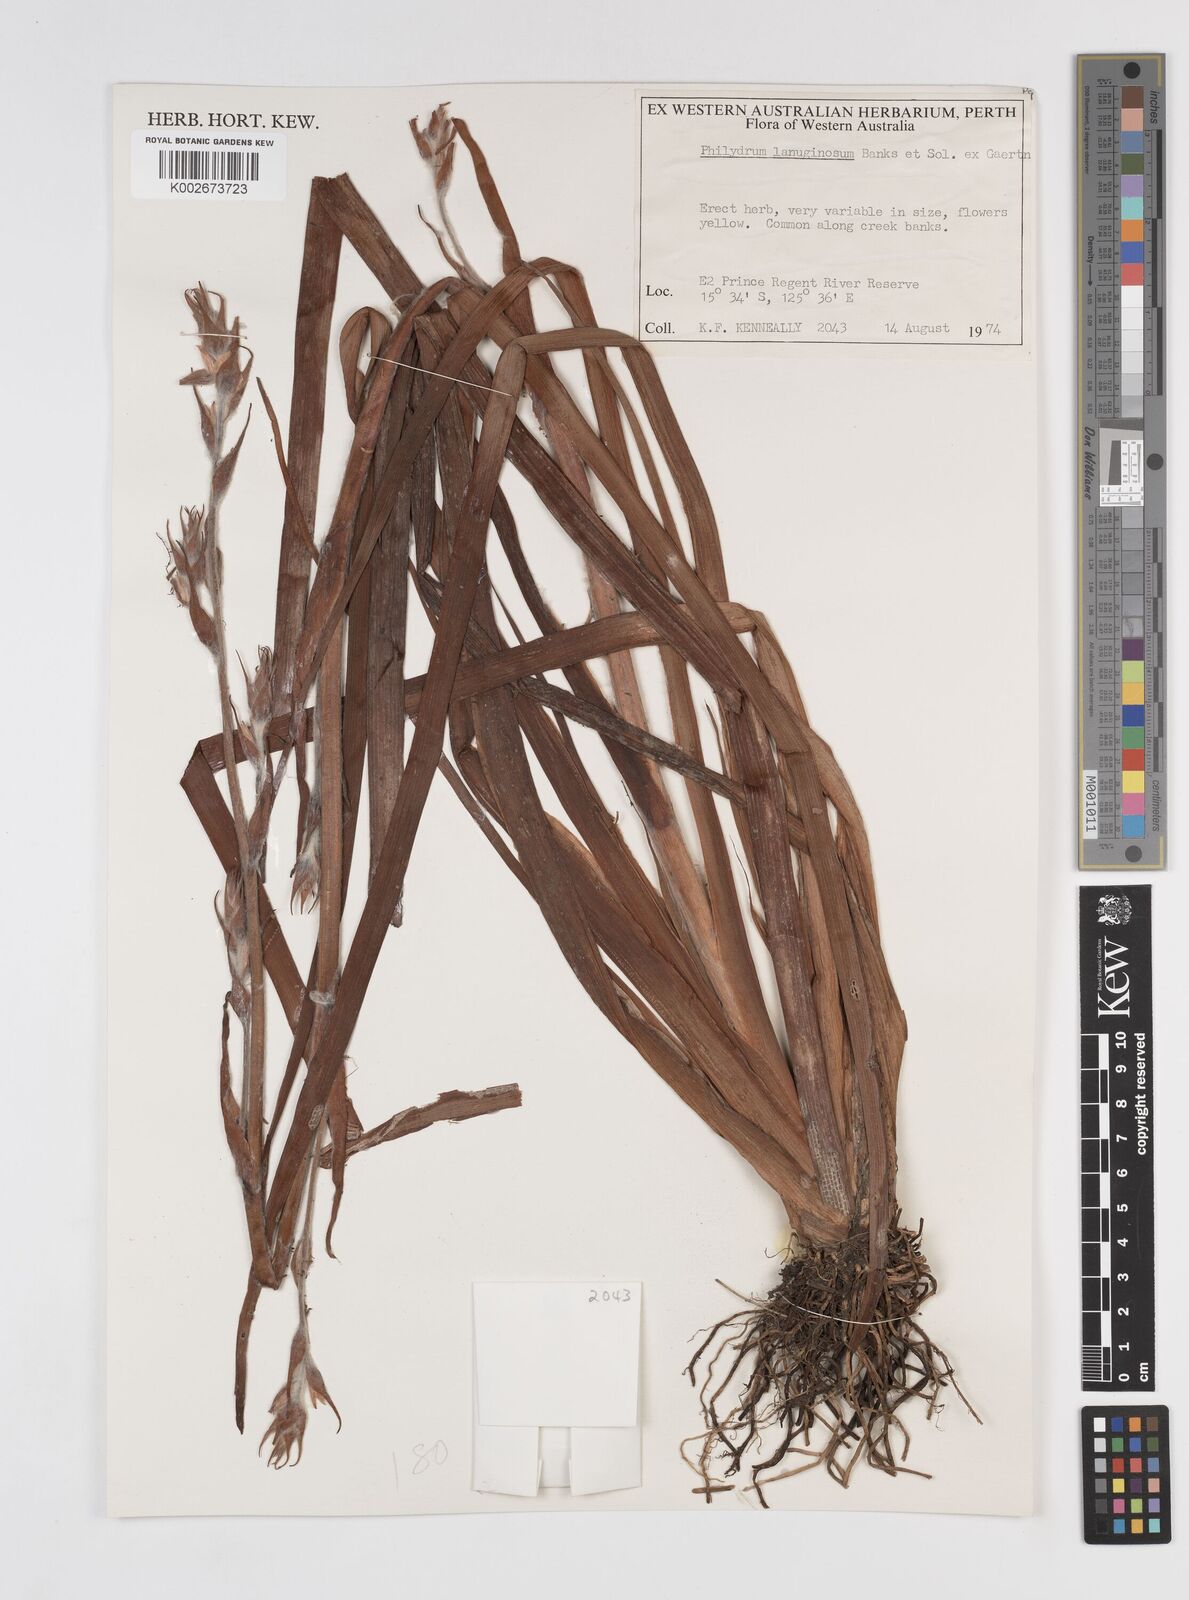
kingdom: Plantae
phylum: Tracheophyta
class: Liliopsida
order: Commelinales
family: Philydraceae
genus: Philydrum
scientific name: Philydrum lanuginosum
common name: Woolly frog's mouth
